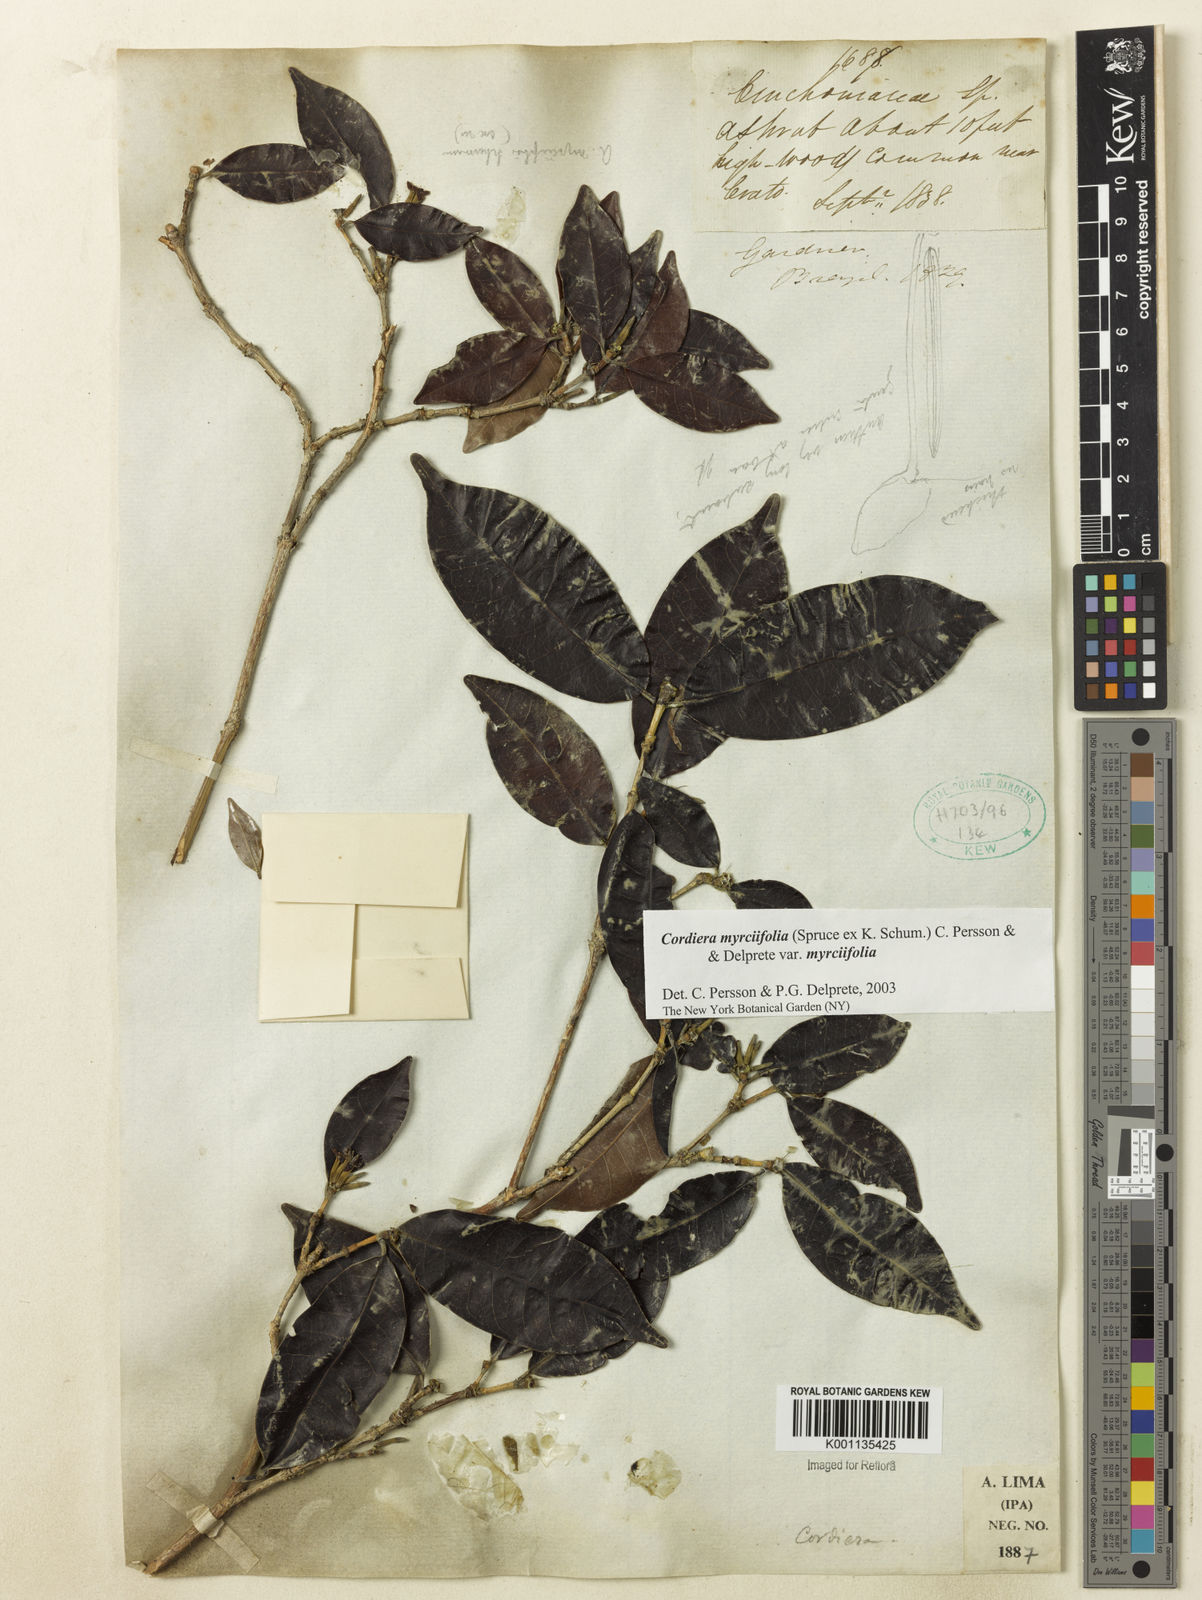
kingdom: Plantae
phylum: Tracheophyta
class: Magnoliopsida
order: Gentianales
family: Rubiaceae
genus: Cordiera
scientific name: Cordiera myrciifolia
